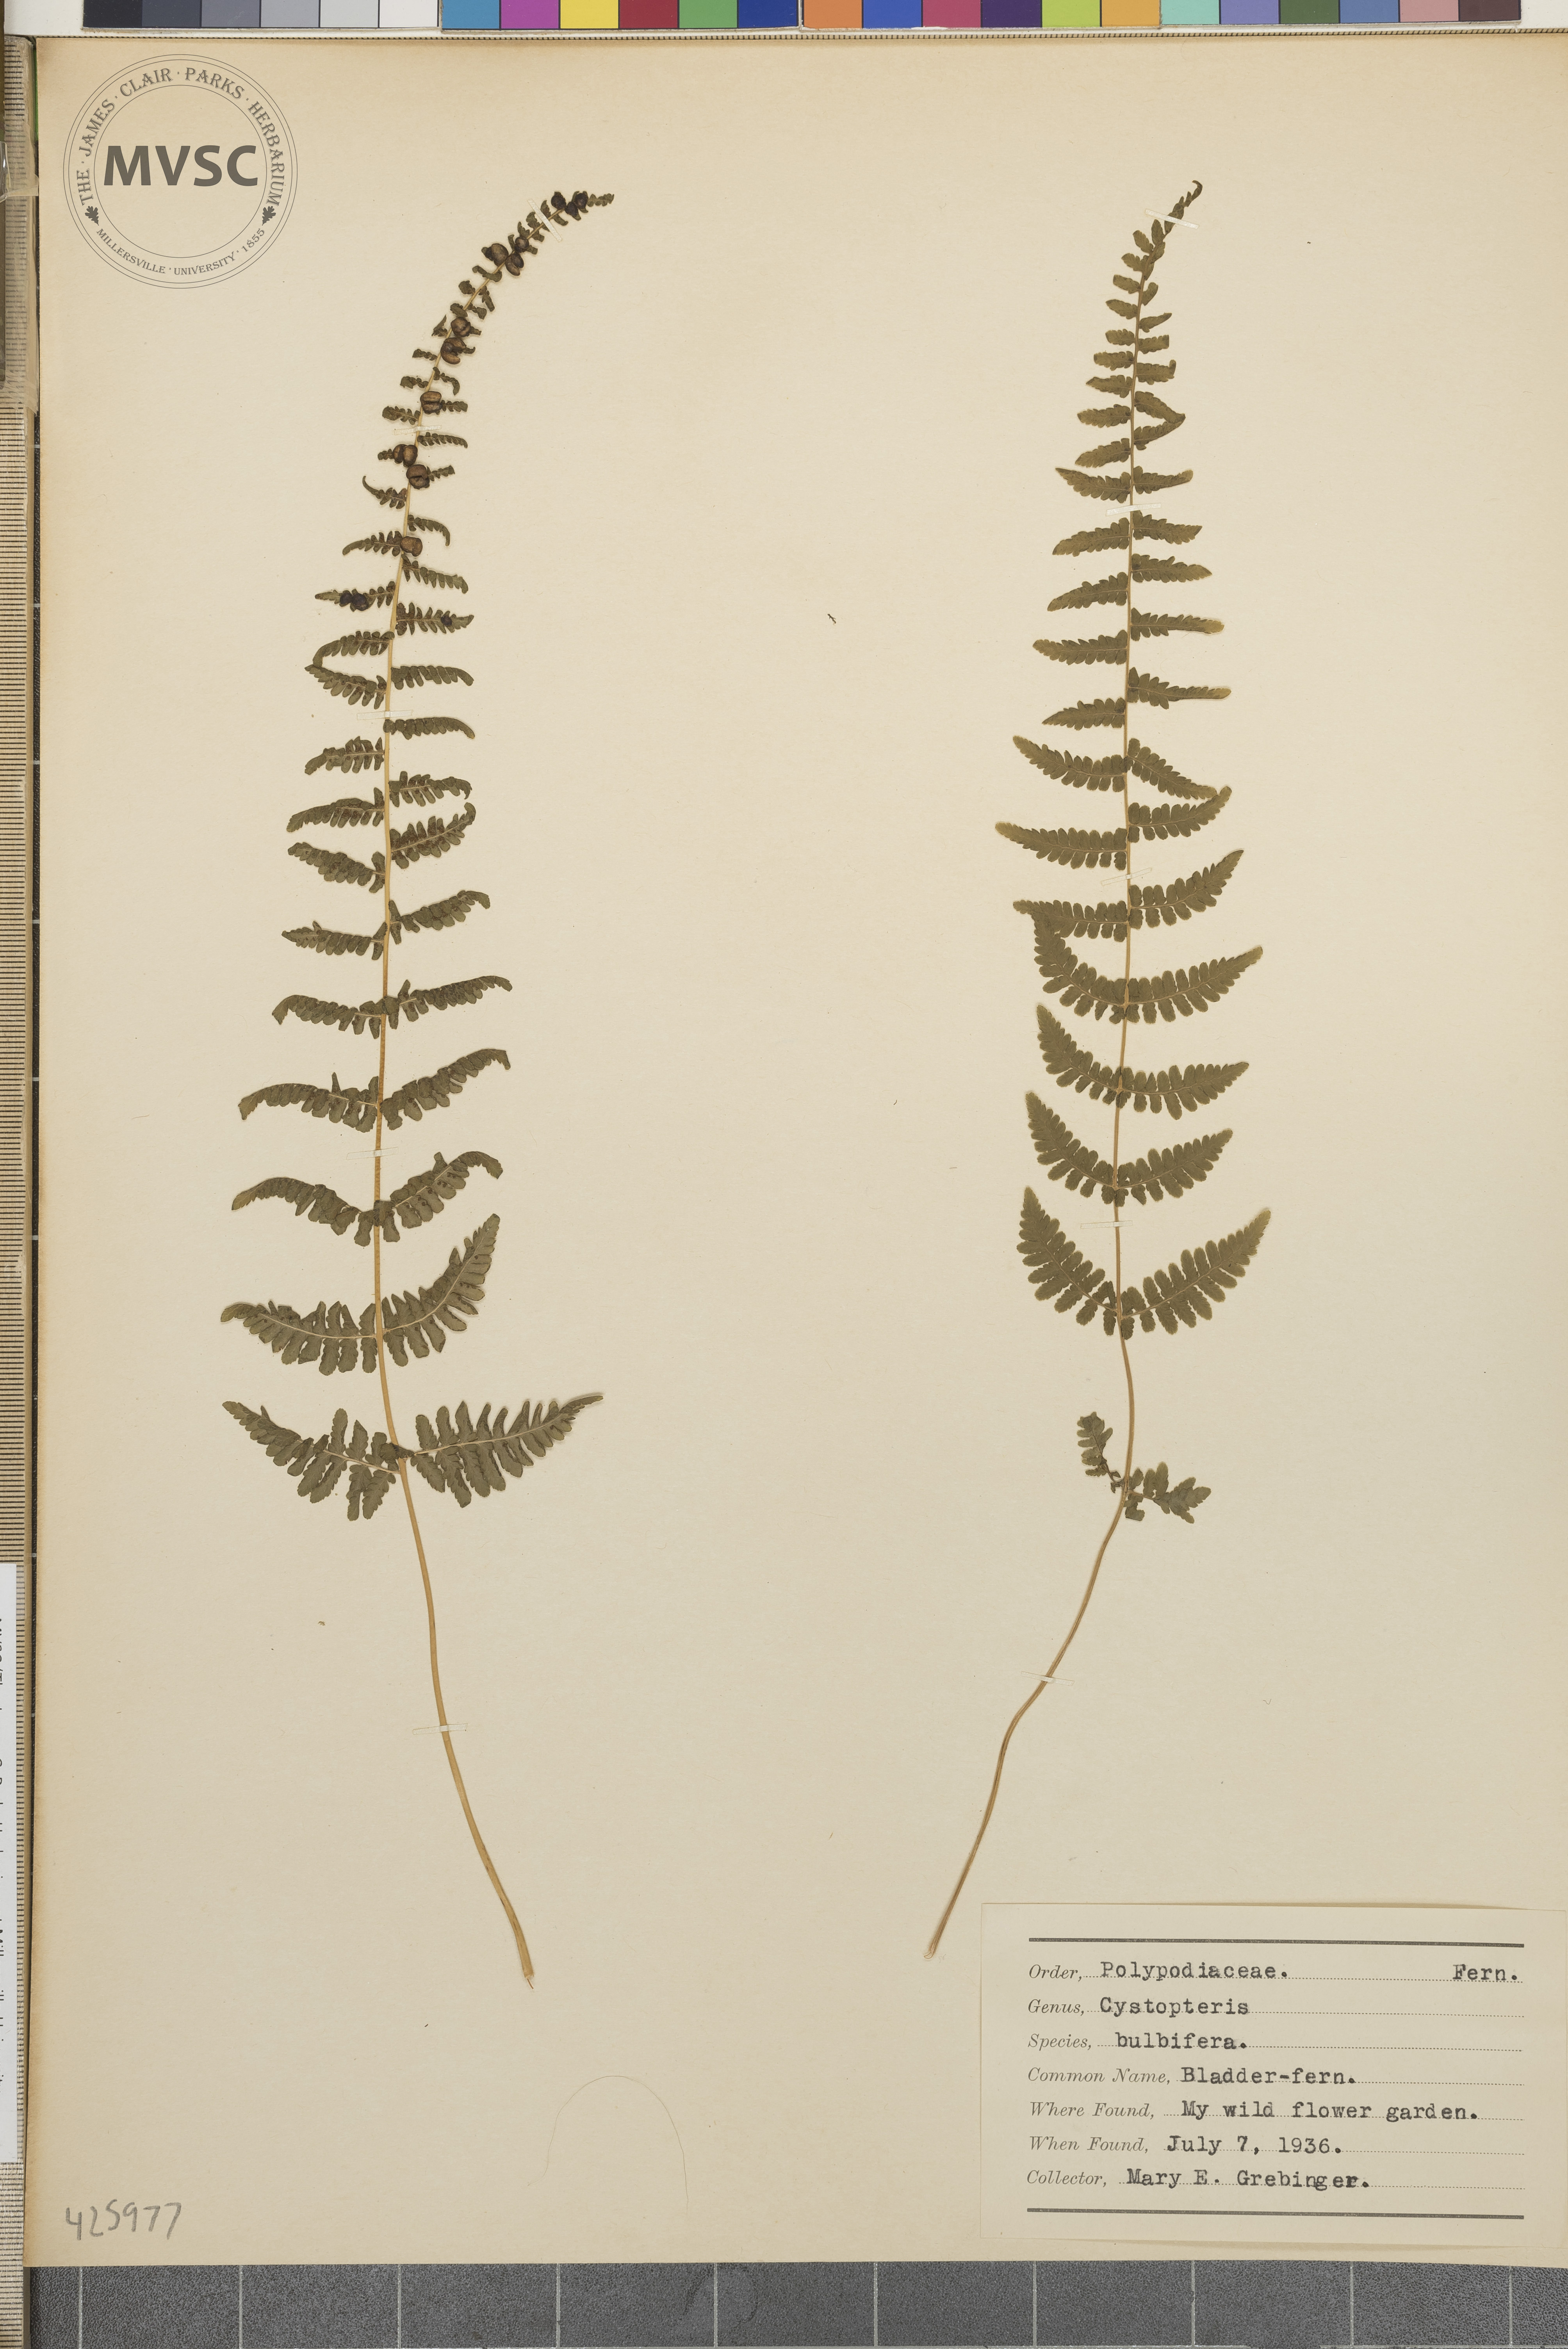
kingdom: Plantae
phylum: Tracheophyta
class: Polypodiopsida
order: Polypodiales
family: Cystopteridaceae
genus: Cystopteris
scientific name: Cystopteris bulbifera
